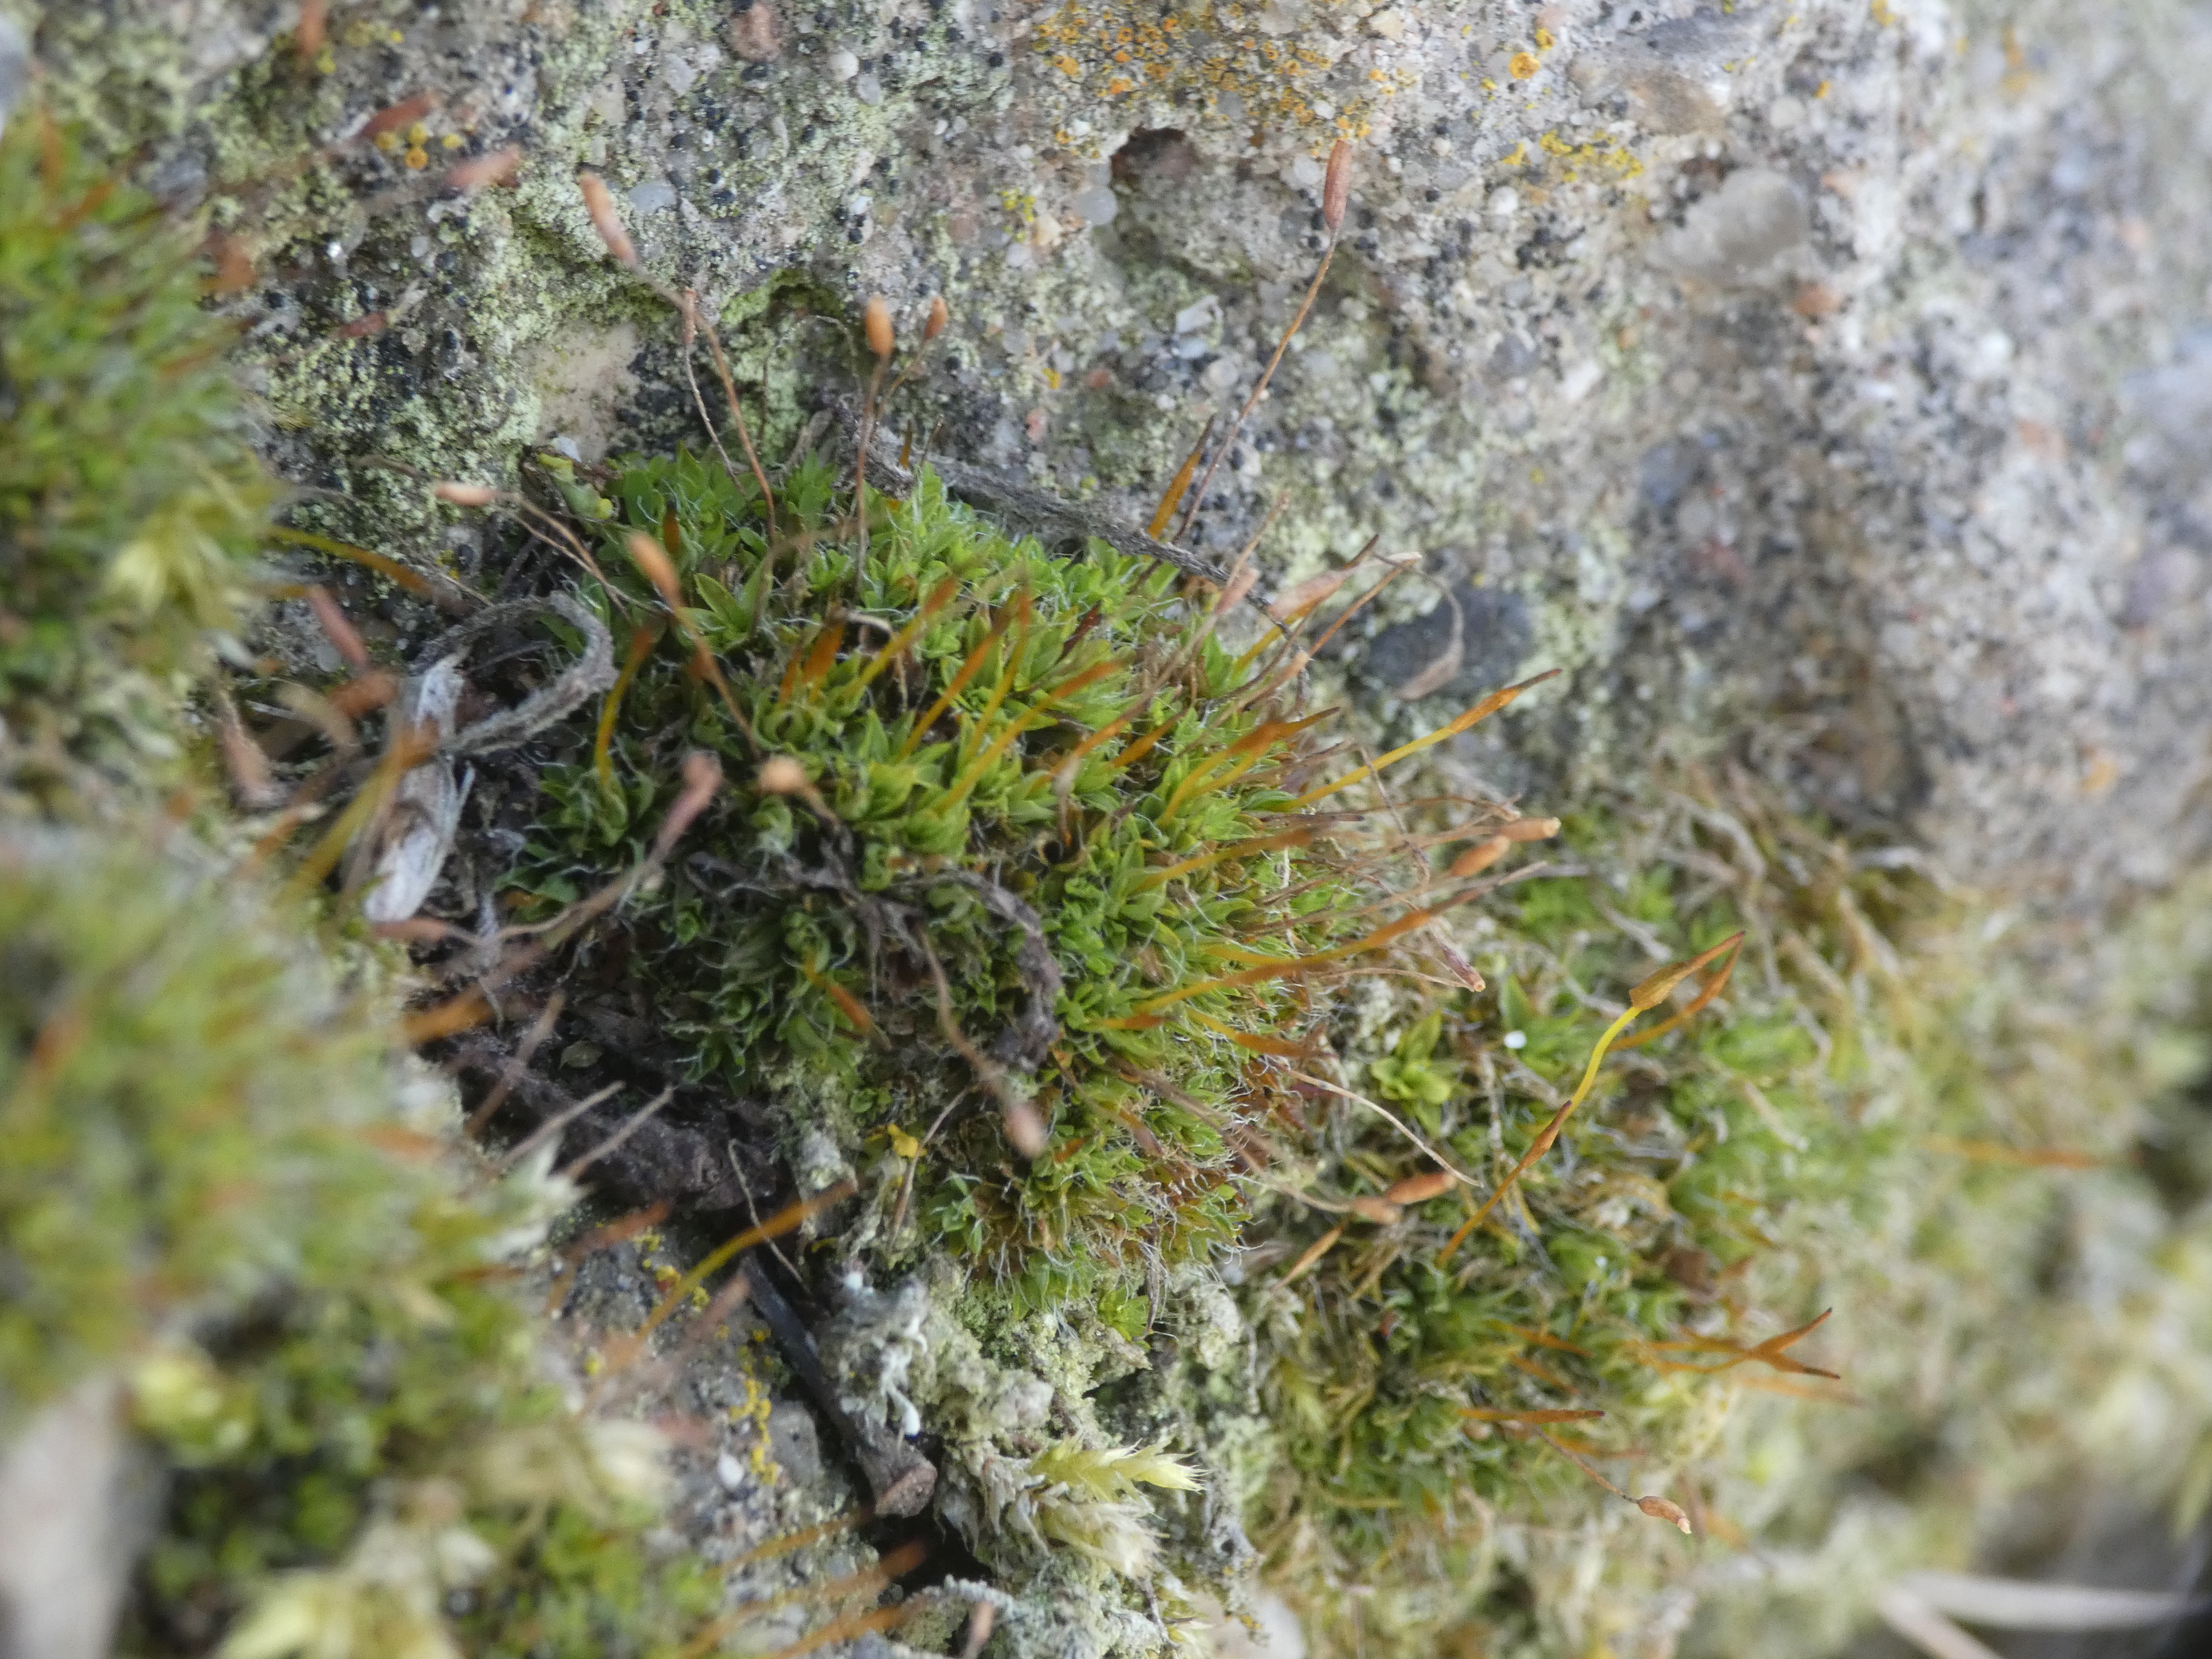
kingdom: Plantae
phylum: Bryophyta
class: Bryopsida
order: Pottiales
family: Pottiaceae
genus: Tortula
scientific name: Tortula muralis
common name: Mur-snotand
